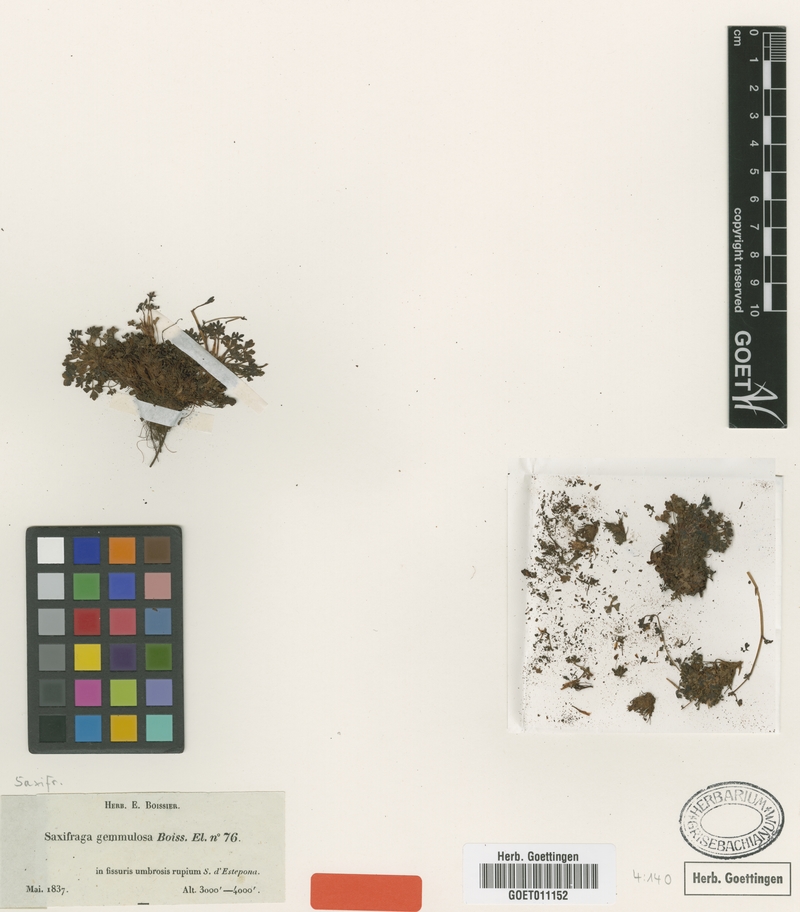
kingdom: Plantae
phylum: Tracheophyta
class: Magnoliopsida
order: Saxifragales
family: Saxifragaceae
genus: Saxifraga
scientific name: Saxifraga gemmulosa
